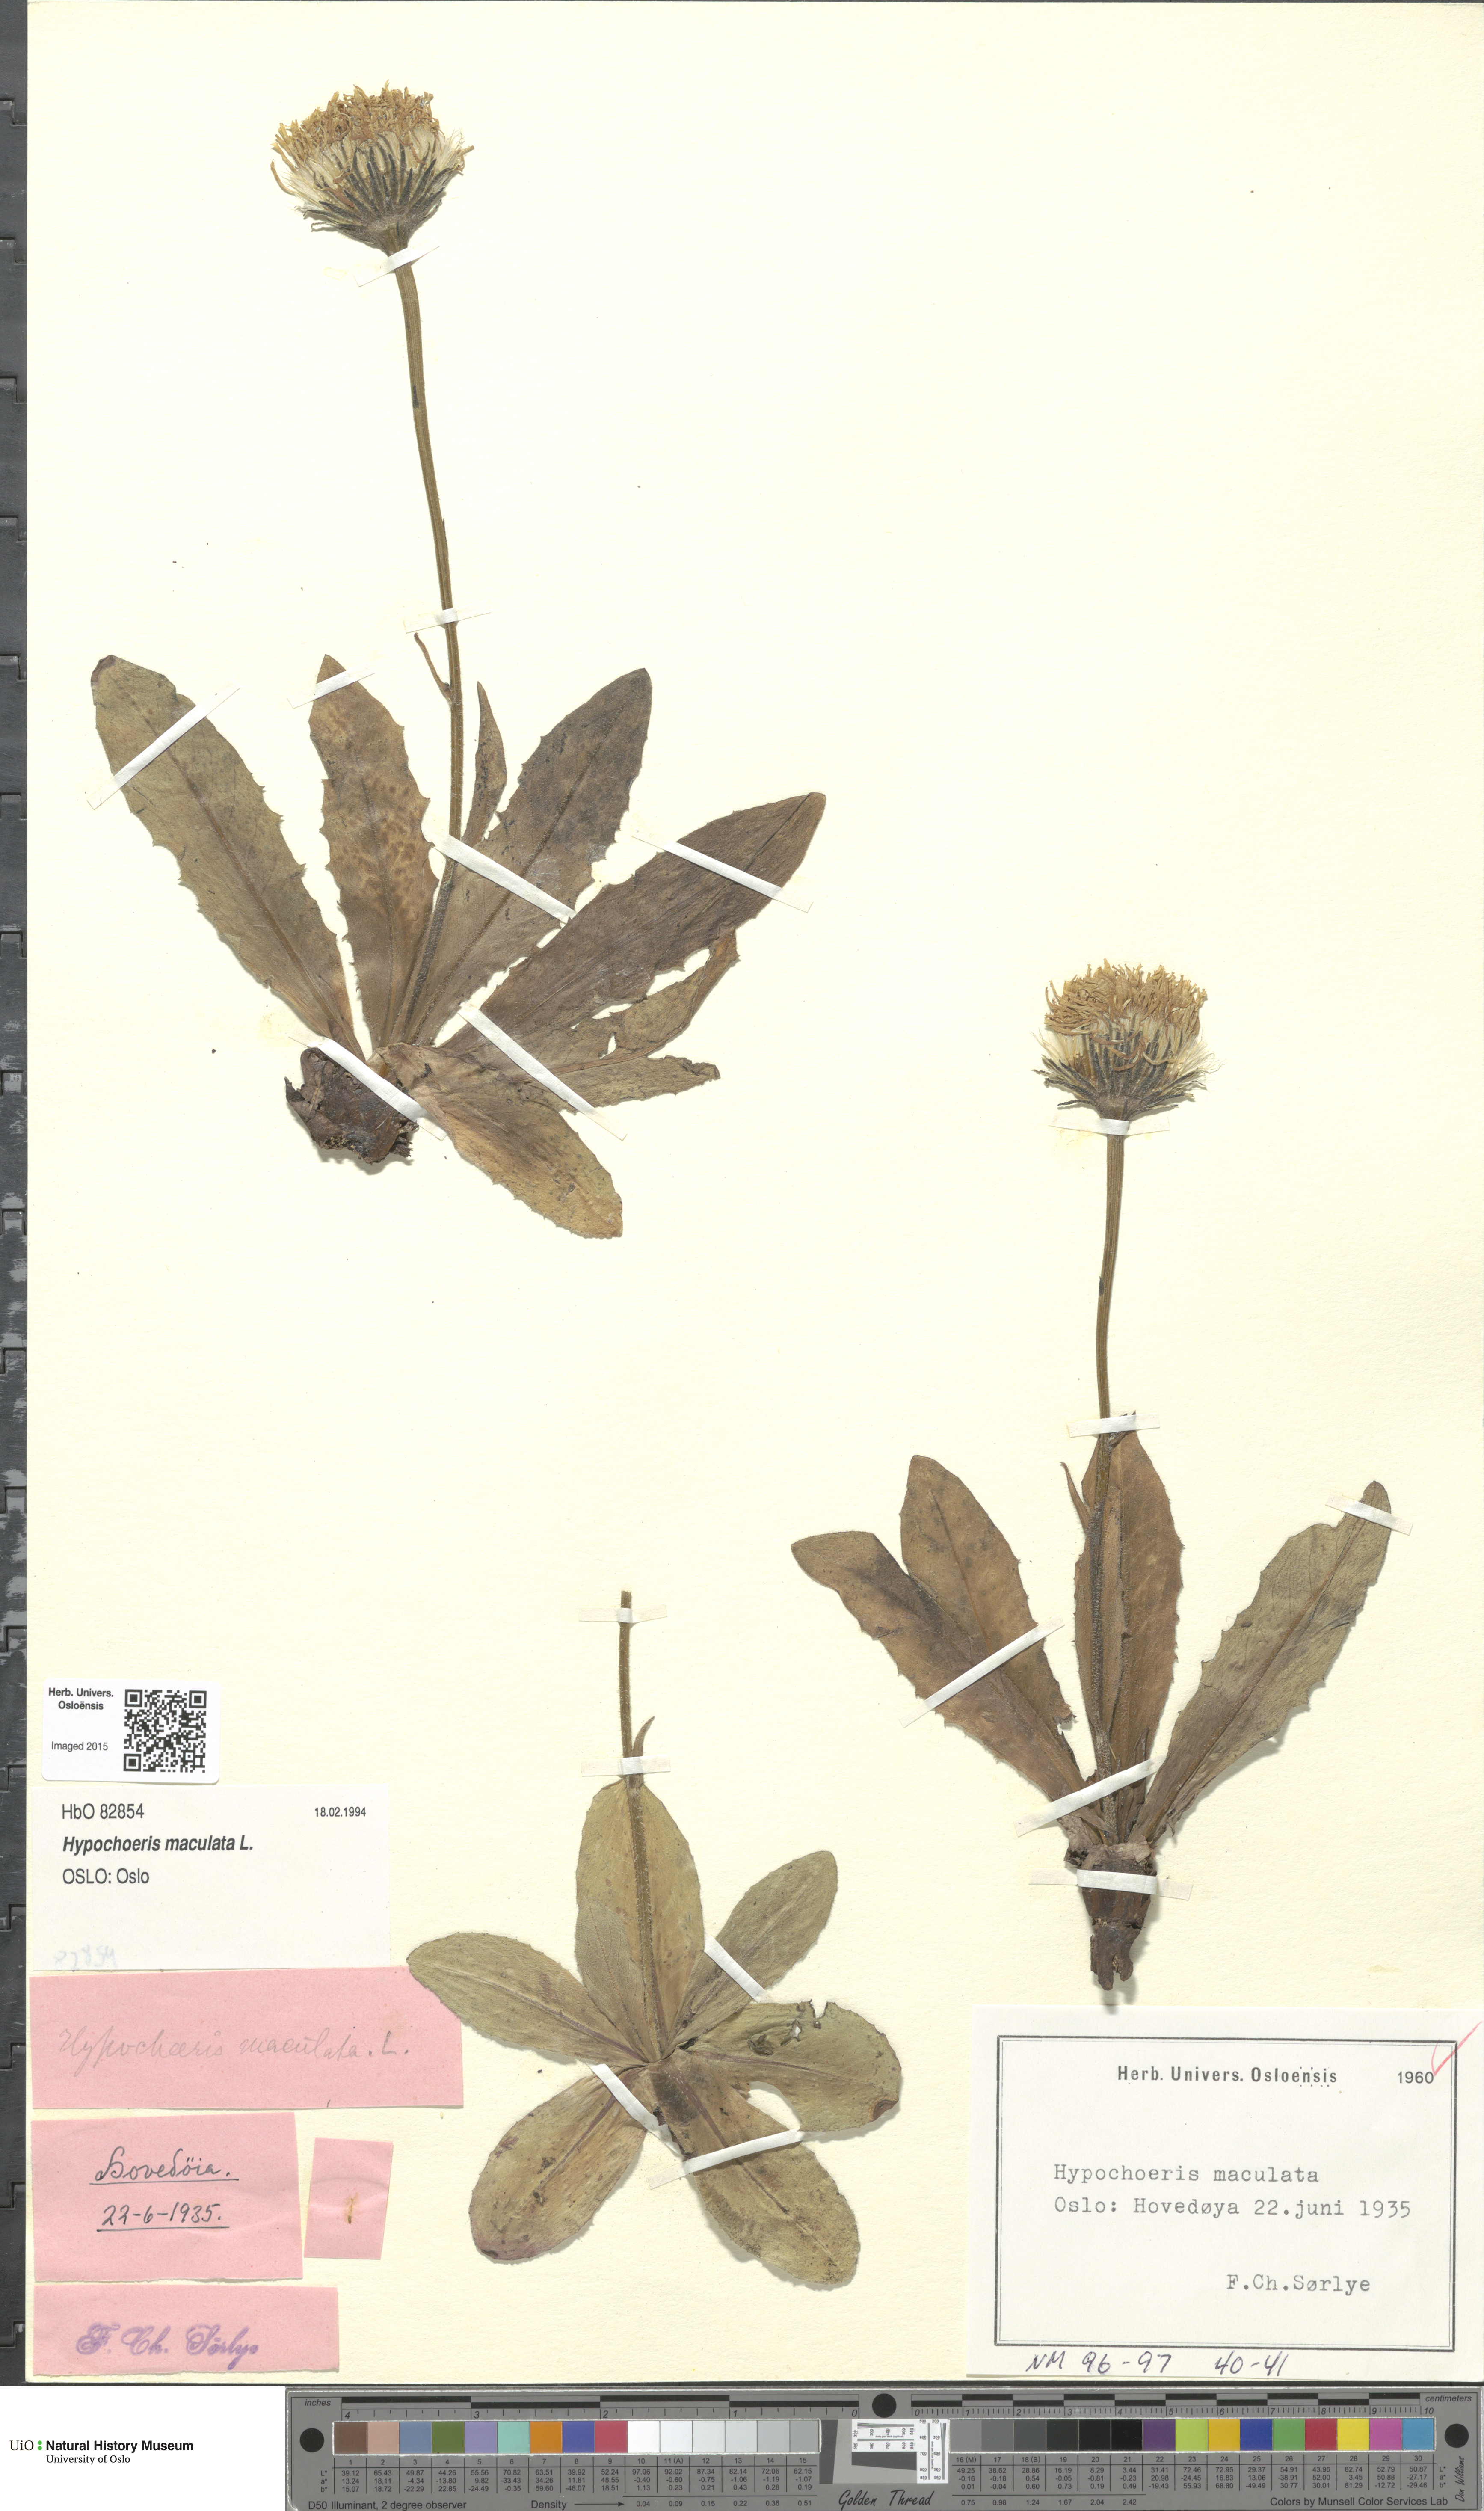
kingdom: Plantae
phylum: Tracheophyta
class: Magnoliopsida
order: Asterales
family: Asteraceae
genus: Trommsdorffia
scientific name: Trommsdorffia maculata
